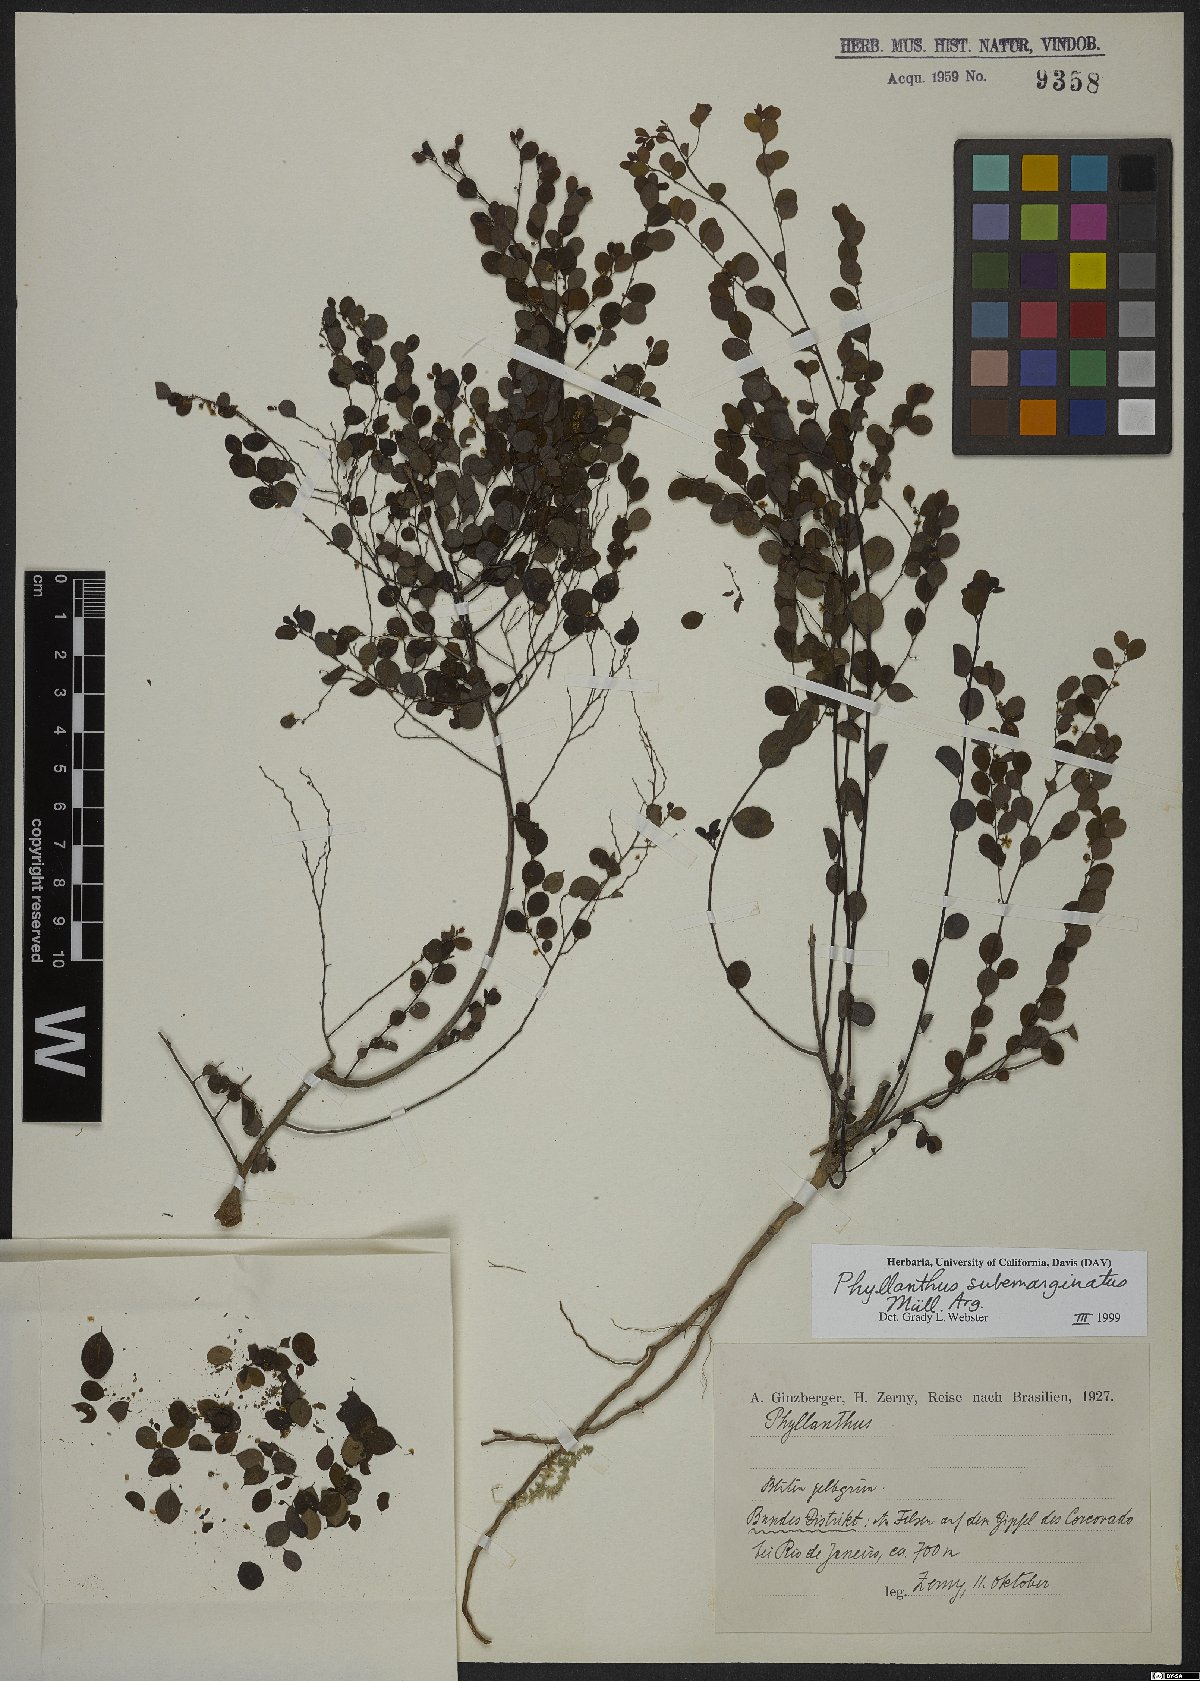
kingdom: Plantae
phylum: Tracheophyta
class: Magnoliopsida
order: Malpighiales
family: Phyllanthaceae
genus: Phyllanthus
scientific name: Phyllanthus subemarginatus
